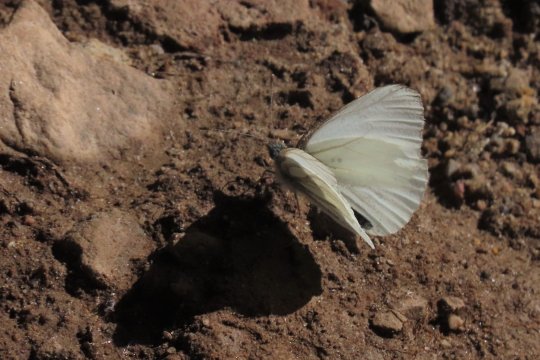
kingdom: Animalia
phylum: Arthropoda
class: Insecta
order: Lepidoptera
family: Pieridae
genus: Pieris
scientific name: Pieris marginalis
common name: Margined White
